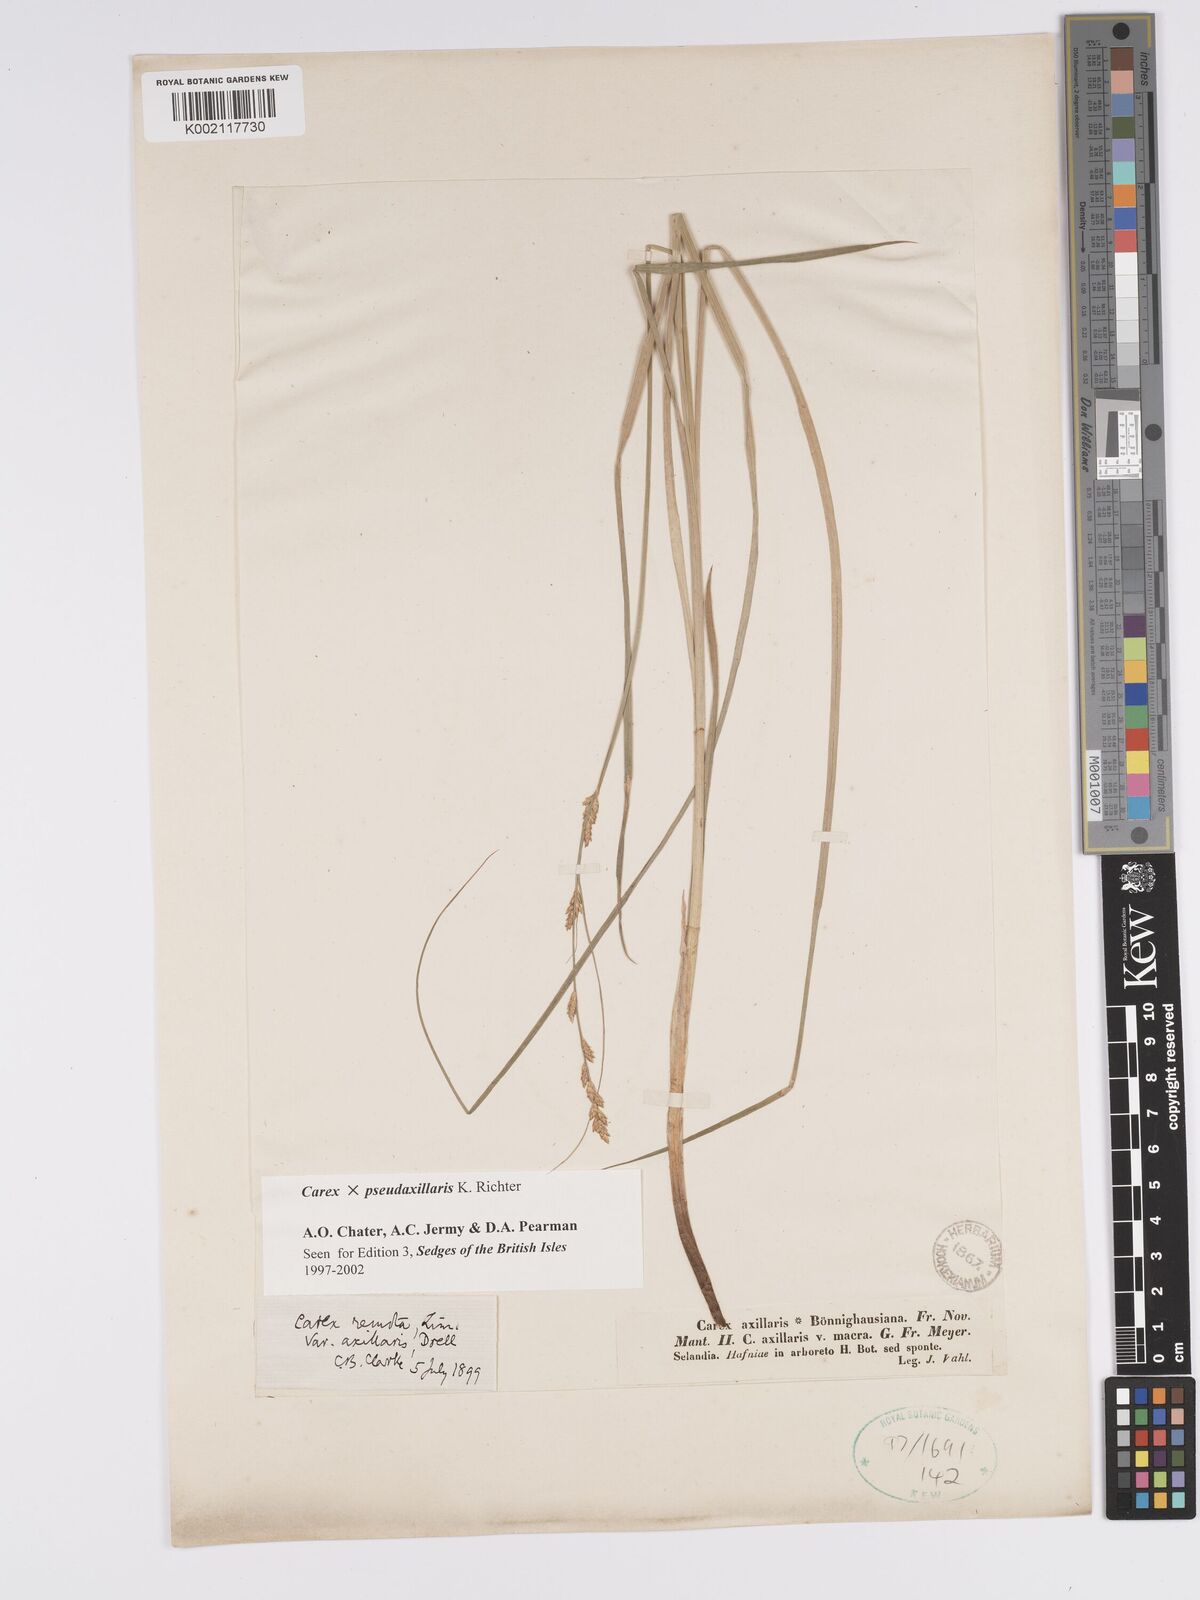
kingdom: Plantae
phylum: Tracheophyta
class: Liliopsida
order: Poales
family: Cyperaceae
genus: Carex
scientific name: Carex pseudoaxillaris
